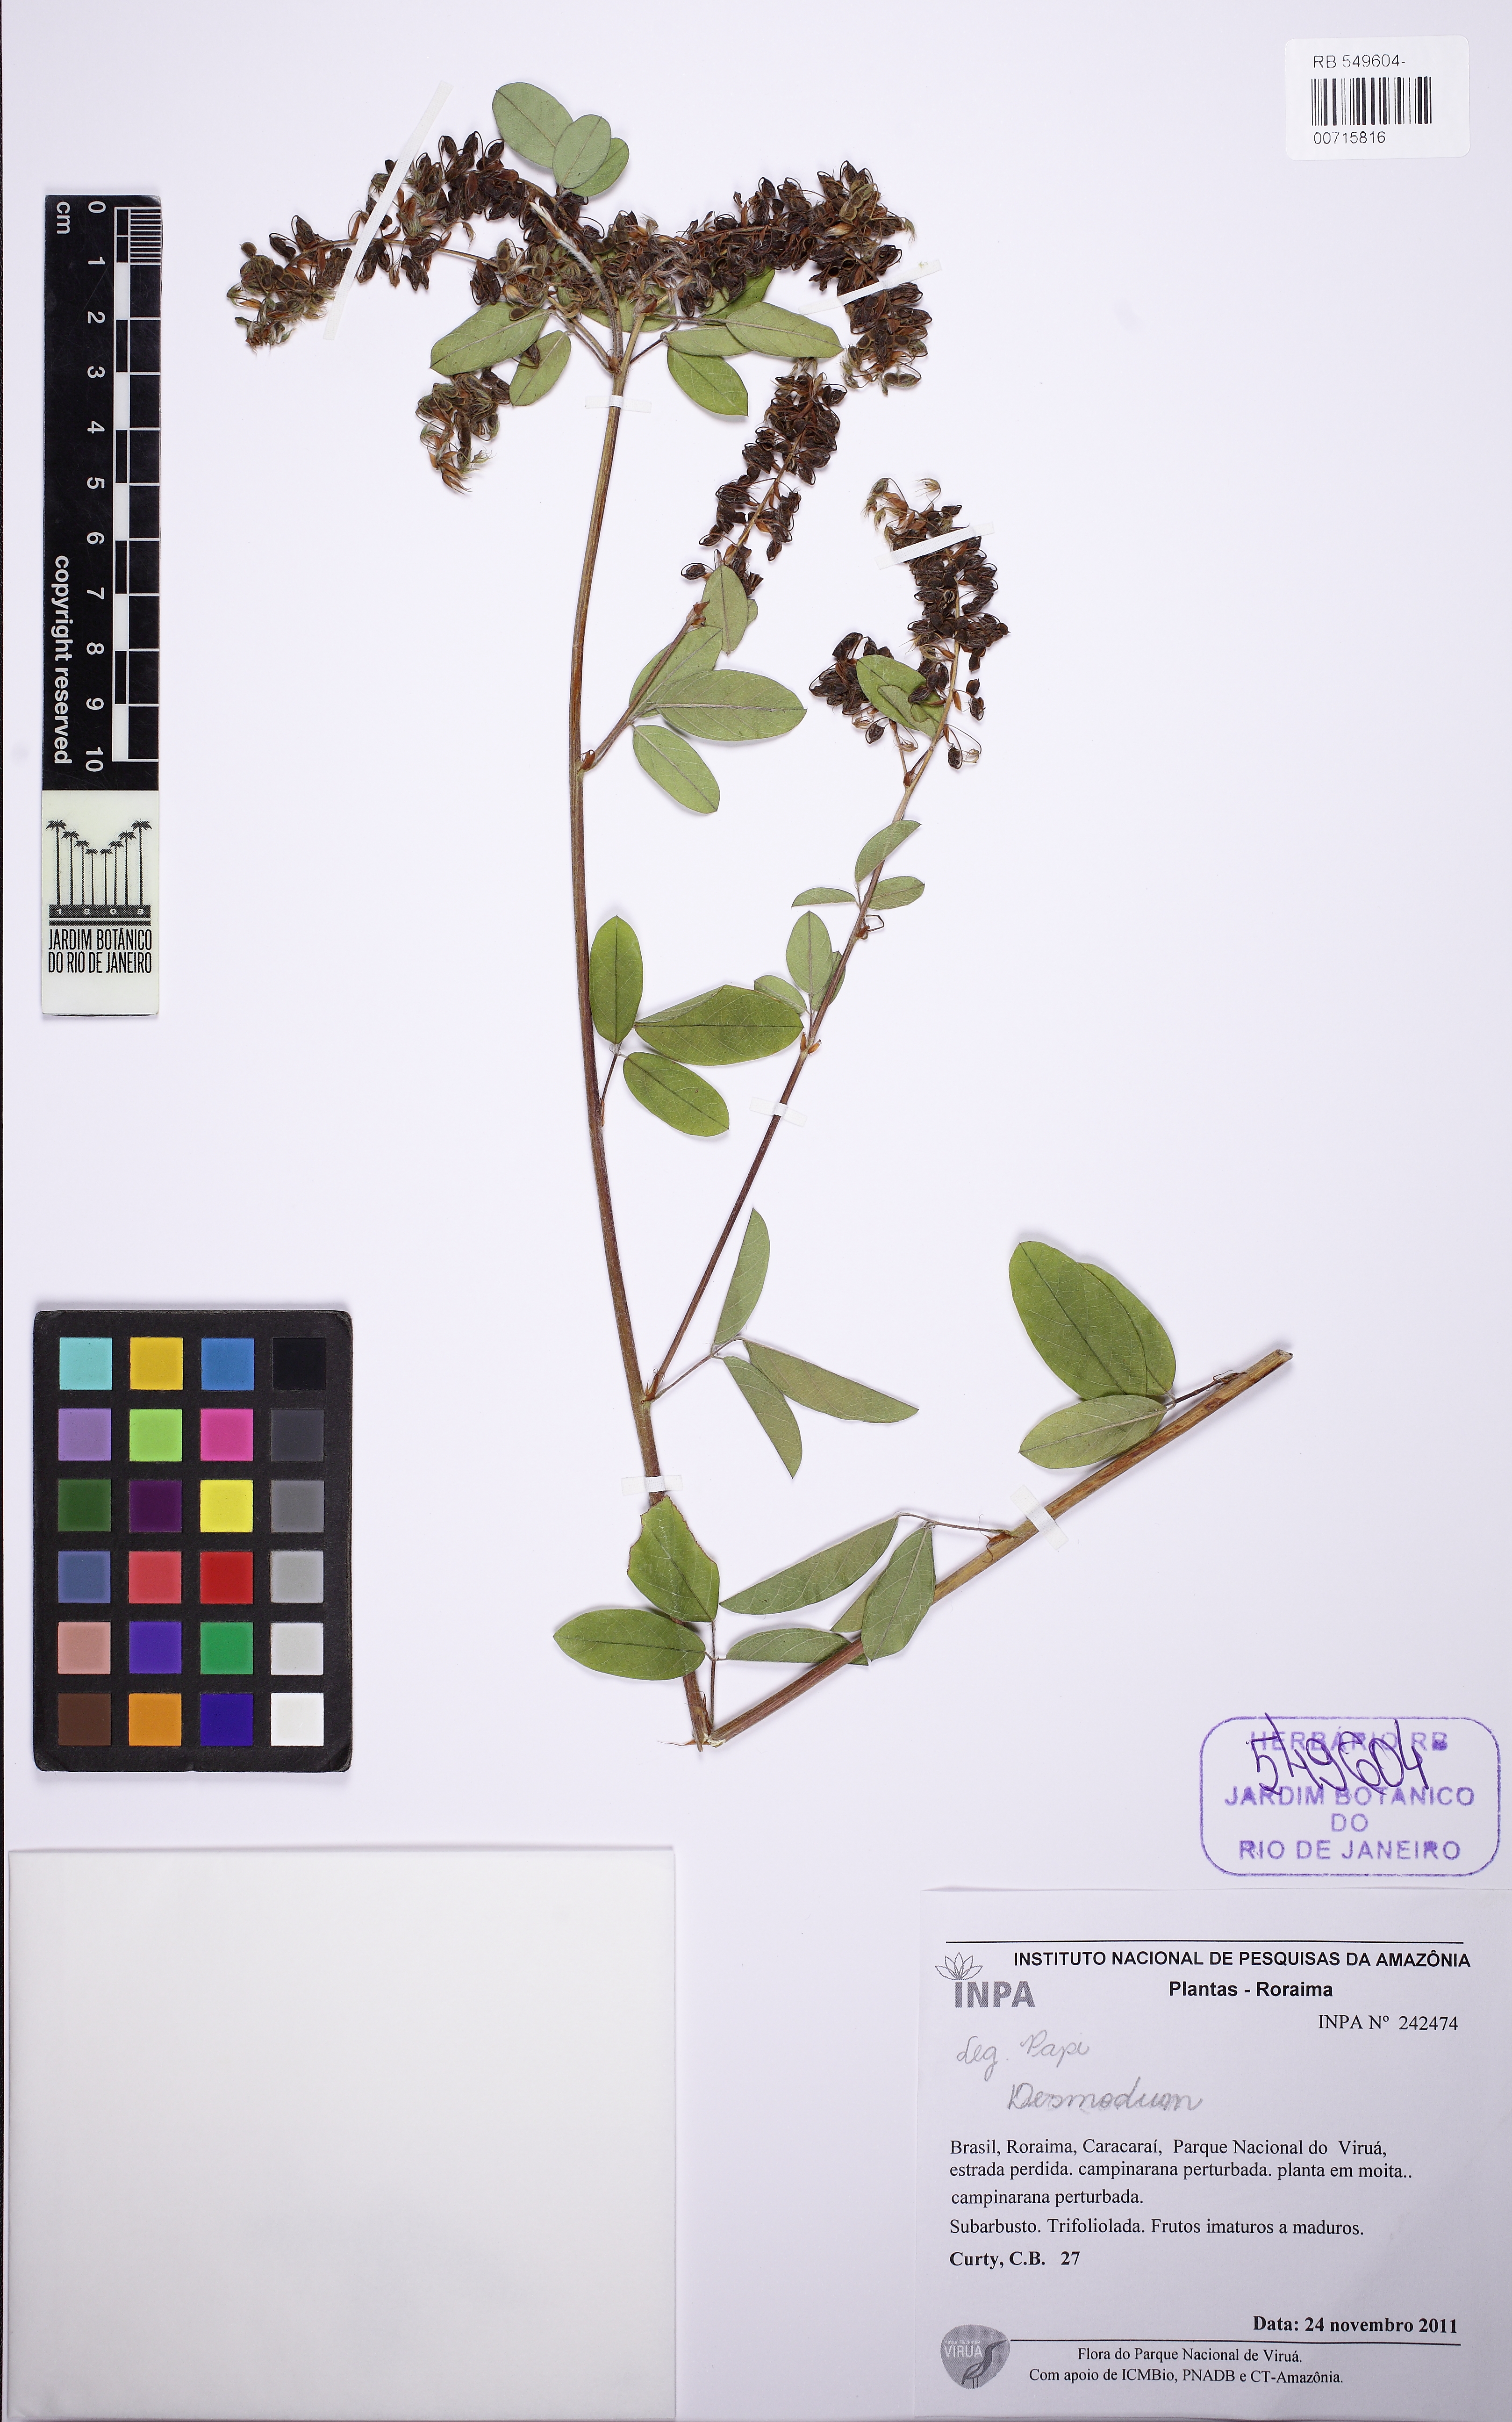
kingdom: Plantae
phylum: Tracheophyta
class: Magnoliopsida
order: Fabales
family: Fabaceae
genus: Grona
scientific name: Grona barbata
